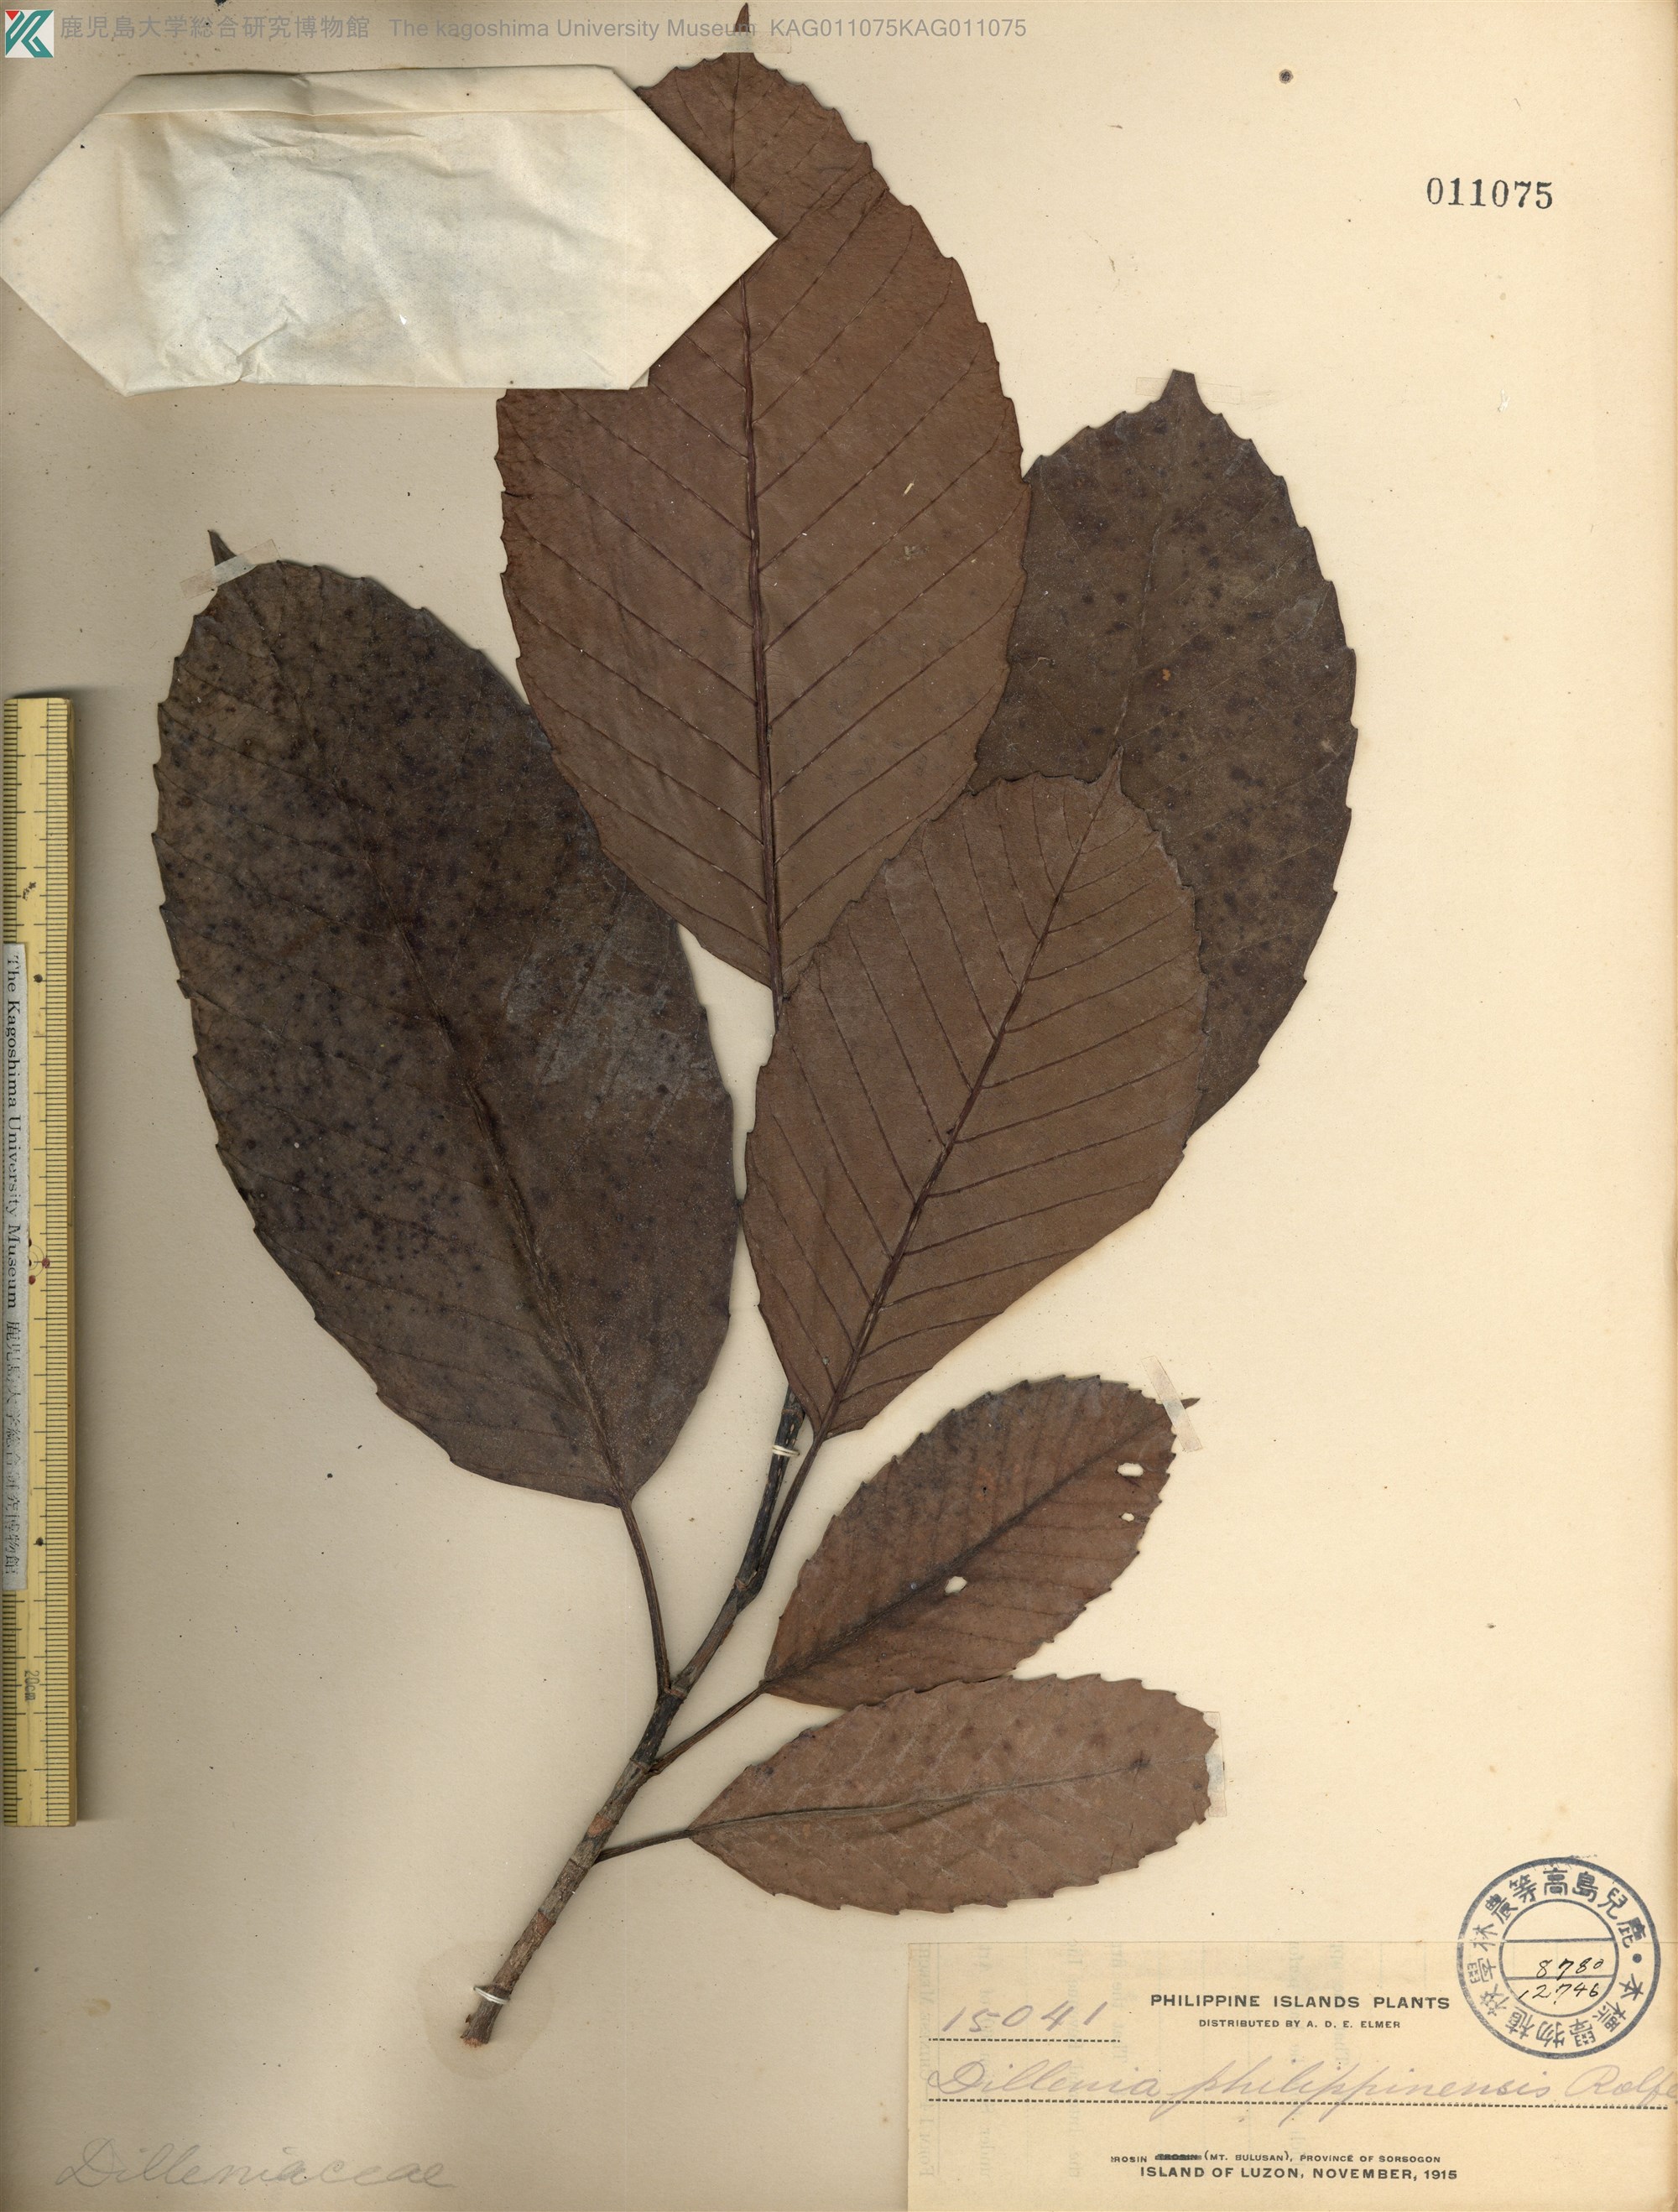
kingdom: Plantae
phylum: Tracheophyta
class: Magnoliopsida
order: Dilleniales
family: Dilleniaceae
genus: Dillenia
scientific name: Dillenia philippinensis
